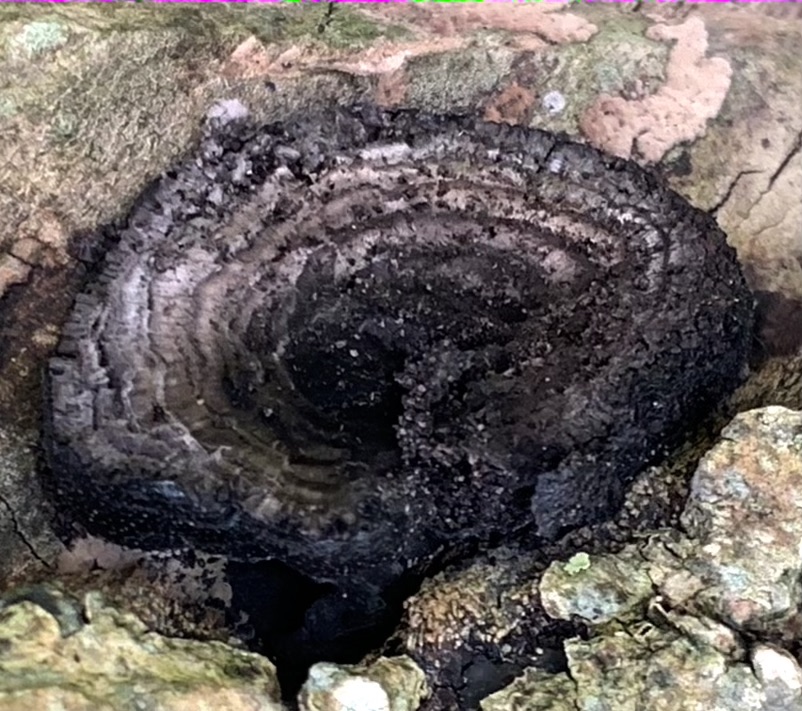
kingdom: Fungi
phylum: Ascomycota
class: Sordariomycetes
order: Xylariales
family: Hypoxylaceae
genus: Daldinia
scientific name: Daldinia concentrica
